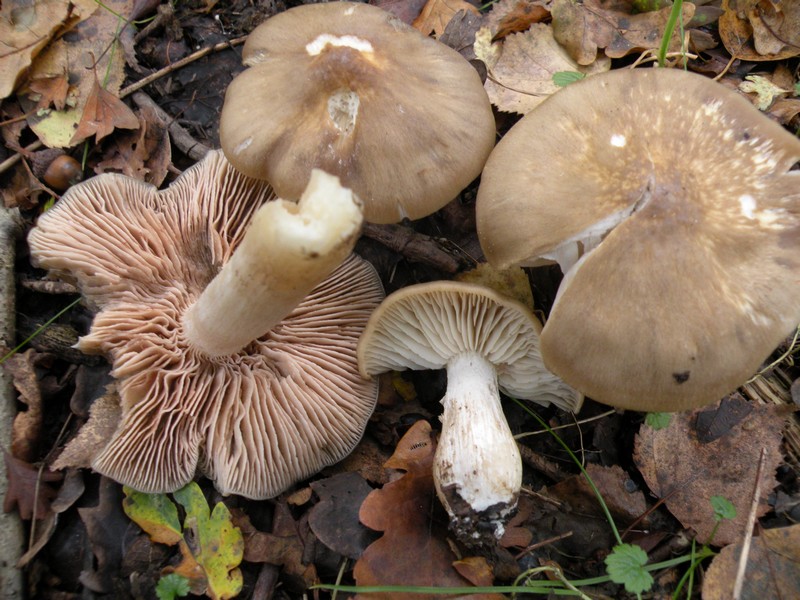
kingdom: Fungi
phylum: Basidiomycota
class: Agaricomycetes
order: Agaricales
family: Entolomataceae
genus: Entoloma
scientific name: Entoloma lividoalbum
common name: lysstokket rødblad
